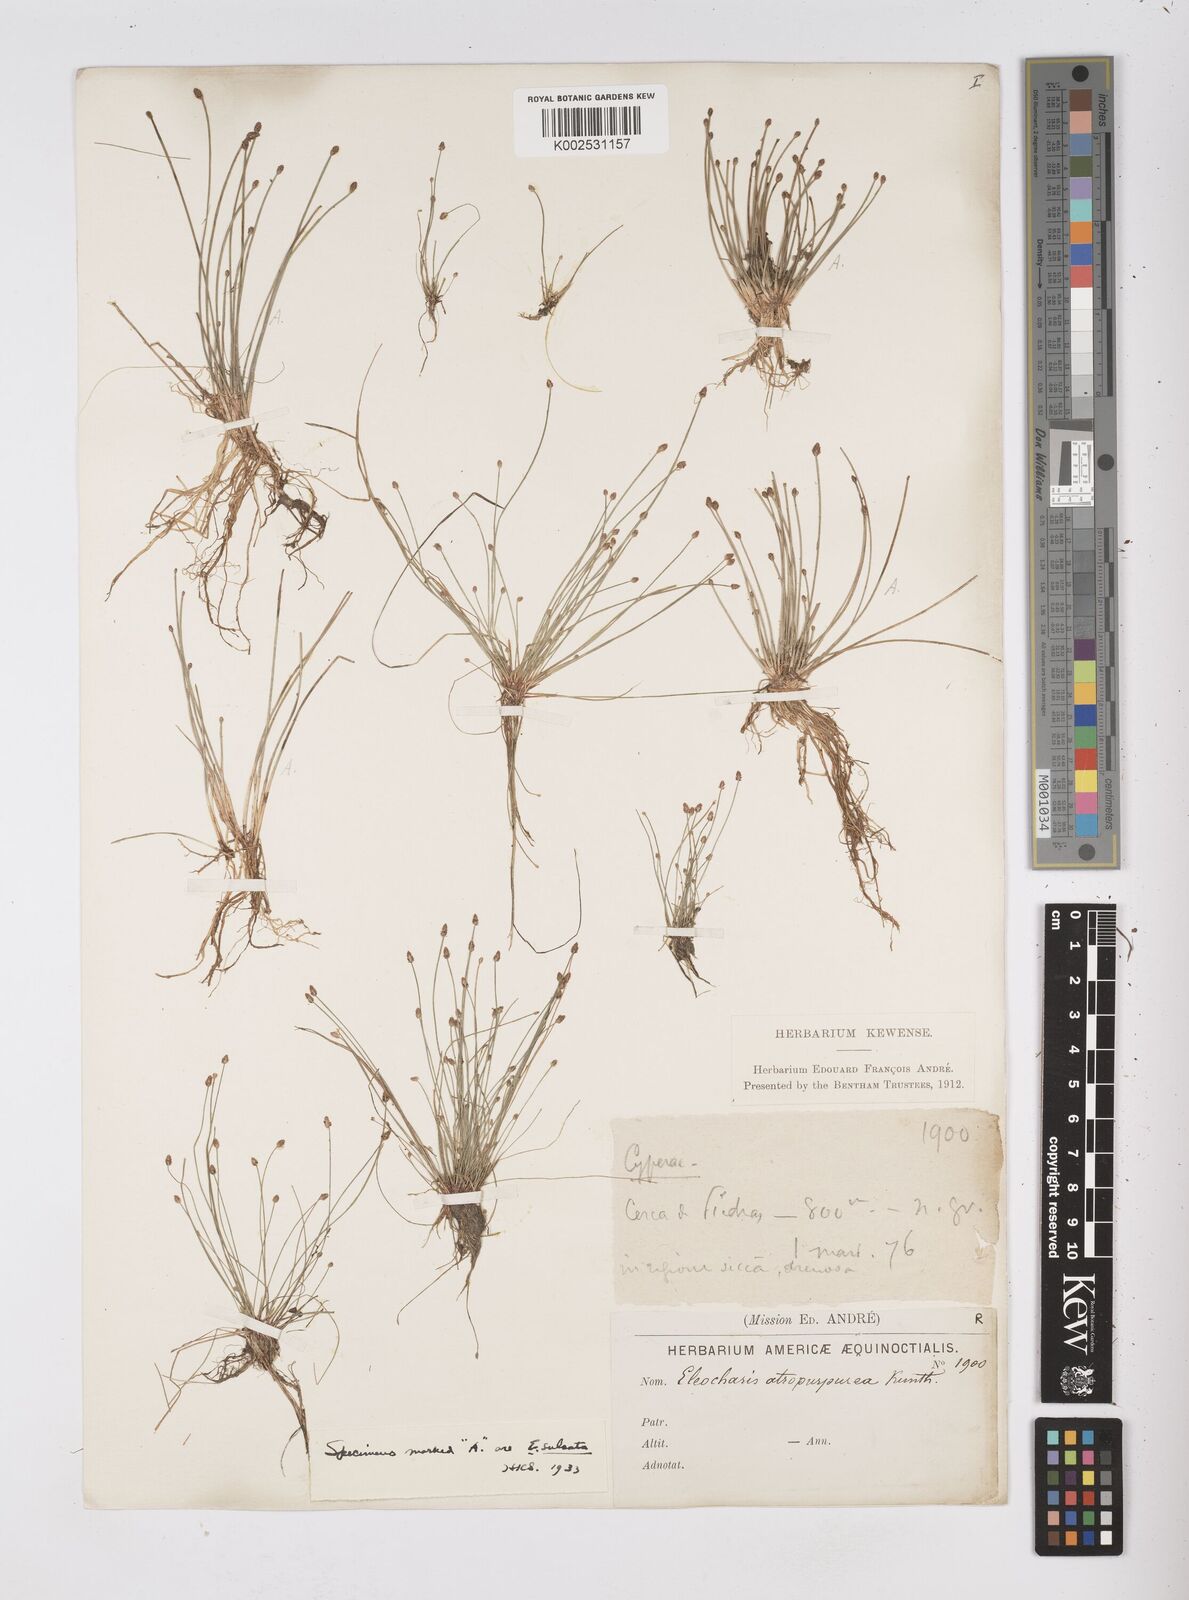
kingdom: Plantae
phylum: Tracheophyta
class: Liliopsida
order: Poales
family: Cyperaceae
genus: Eleocharis
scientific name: Eleocharis atropurpurea
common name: Purple spikerush
